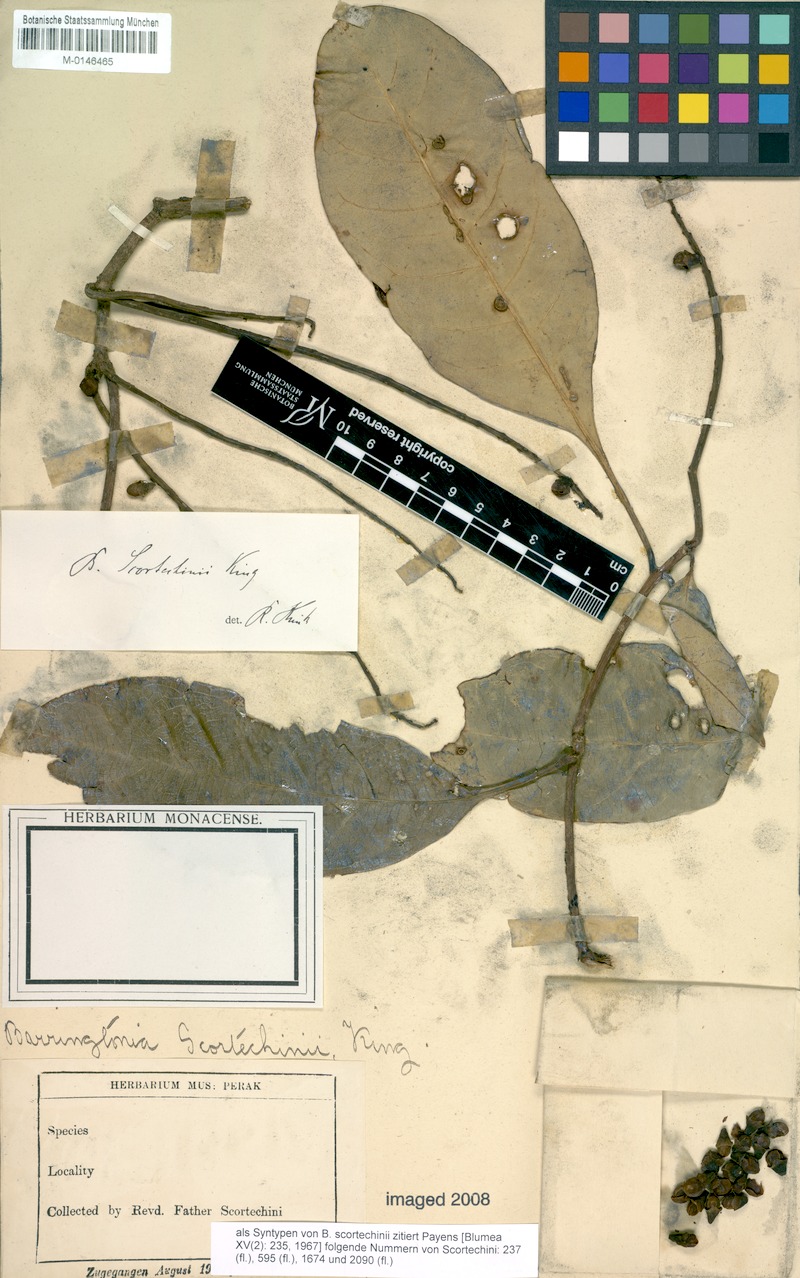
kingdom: Plantae
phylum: Tracheophyta
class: Magnoliopsida
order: Ericales
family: Lecythidaceae
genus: Barringtonia
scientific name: Barringtonia scortechinii
